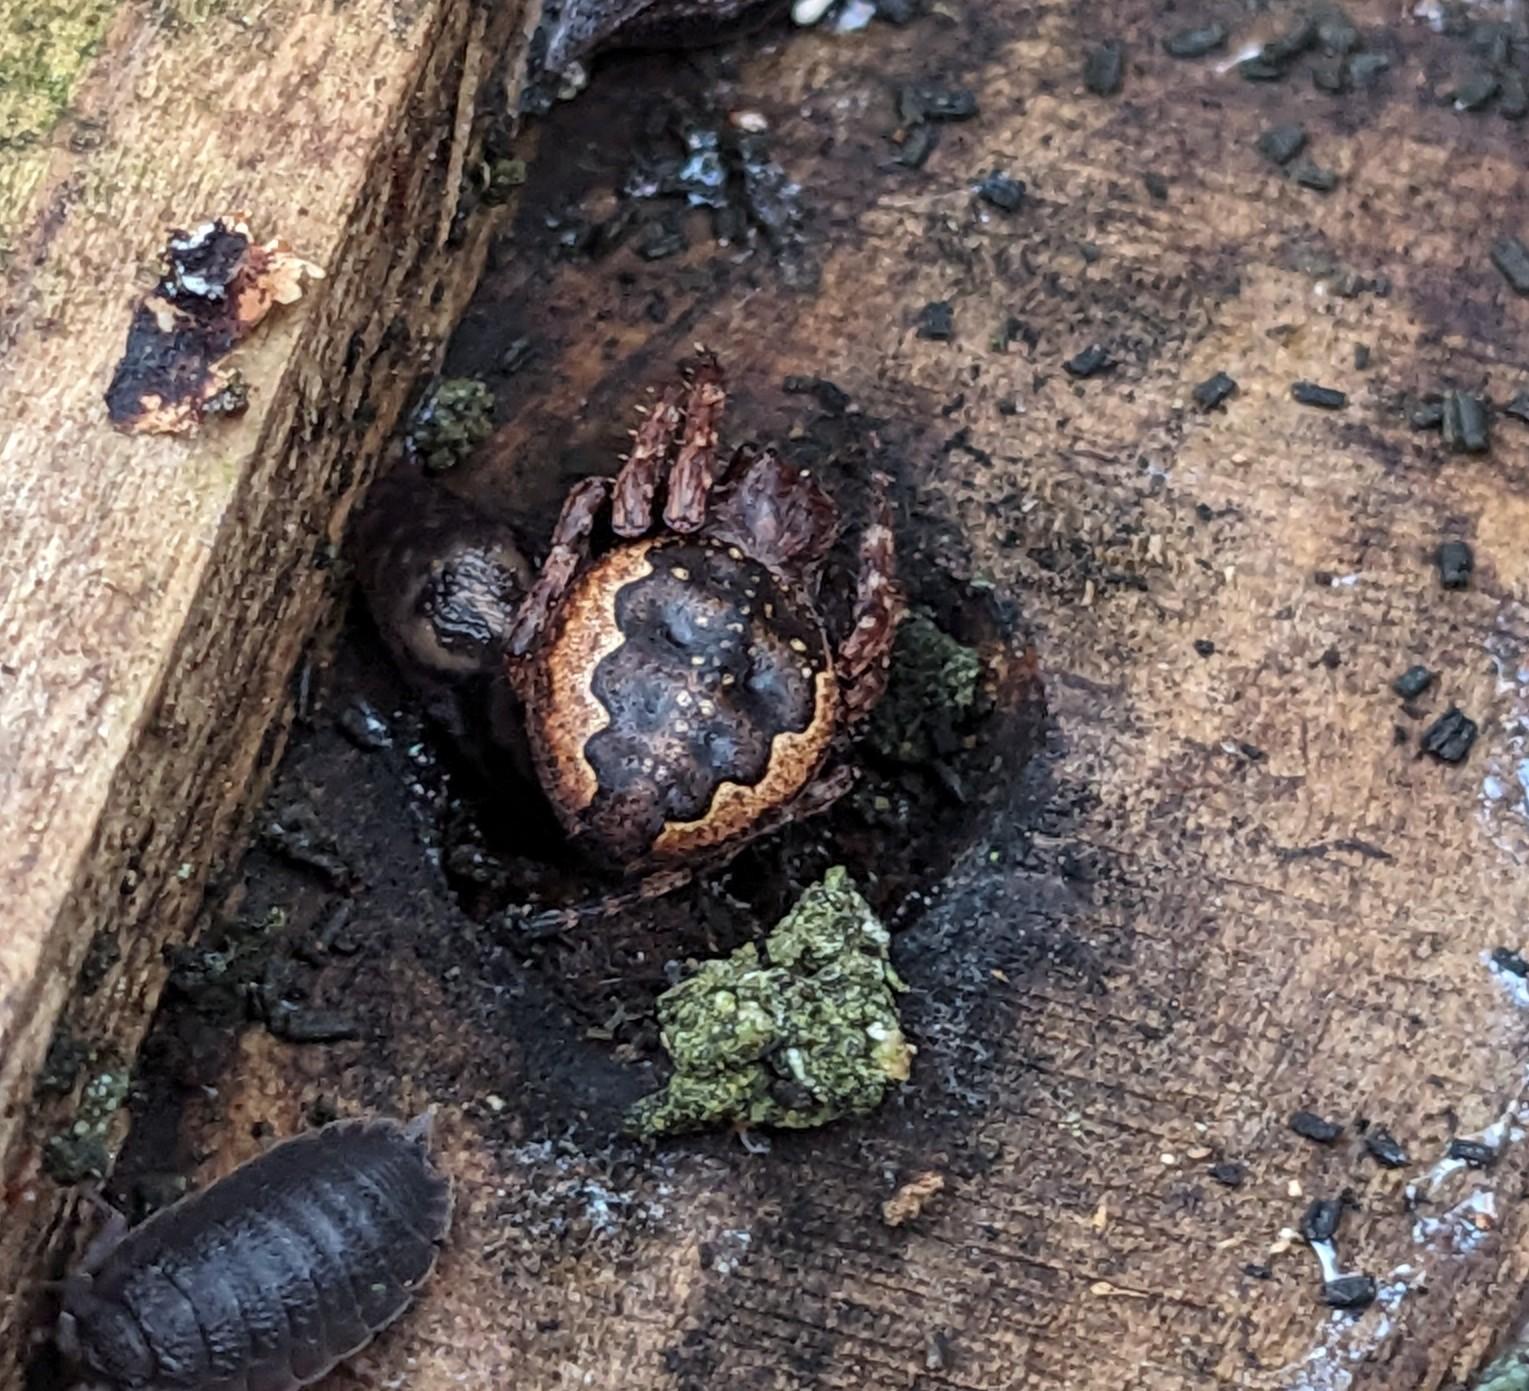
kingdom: Animalia
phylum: Arthropoda
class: Arachnida
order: Araneae
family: Araneidae
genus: Nuctenea
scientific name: Nuctenea umbratica
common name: Flad hjulspinder
